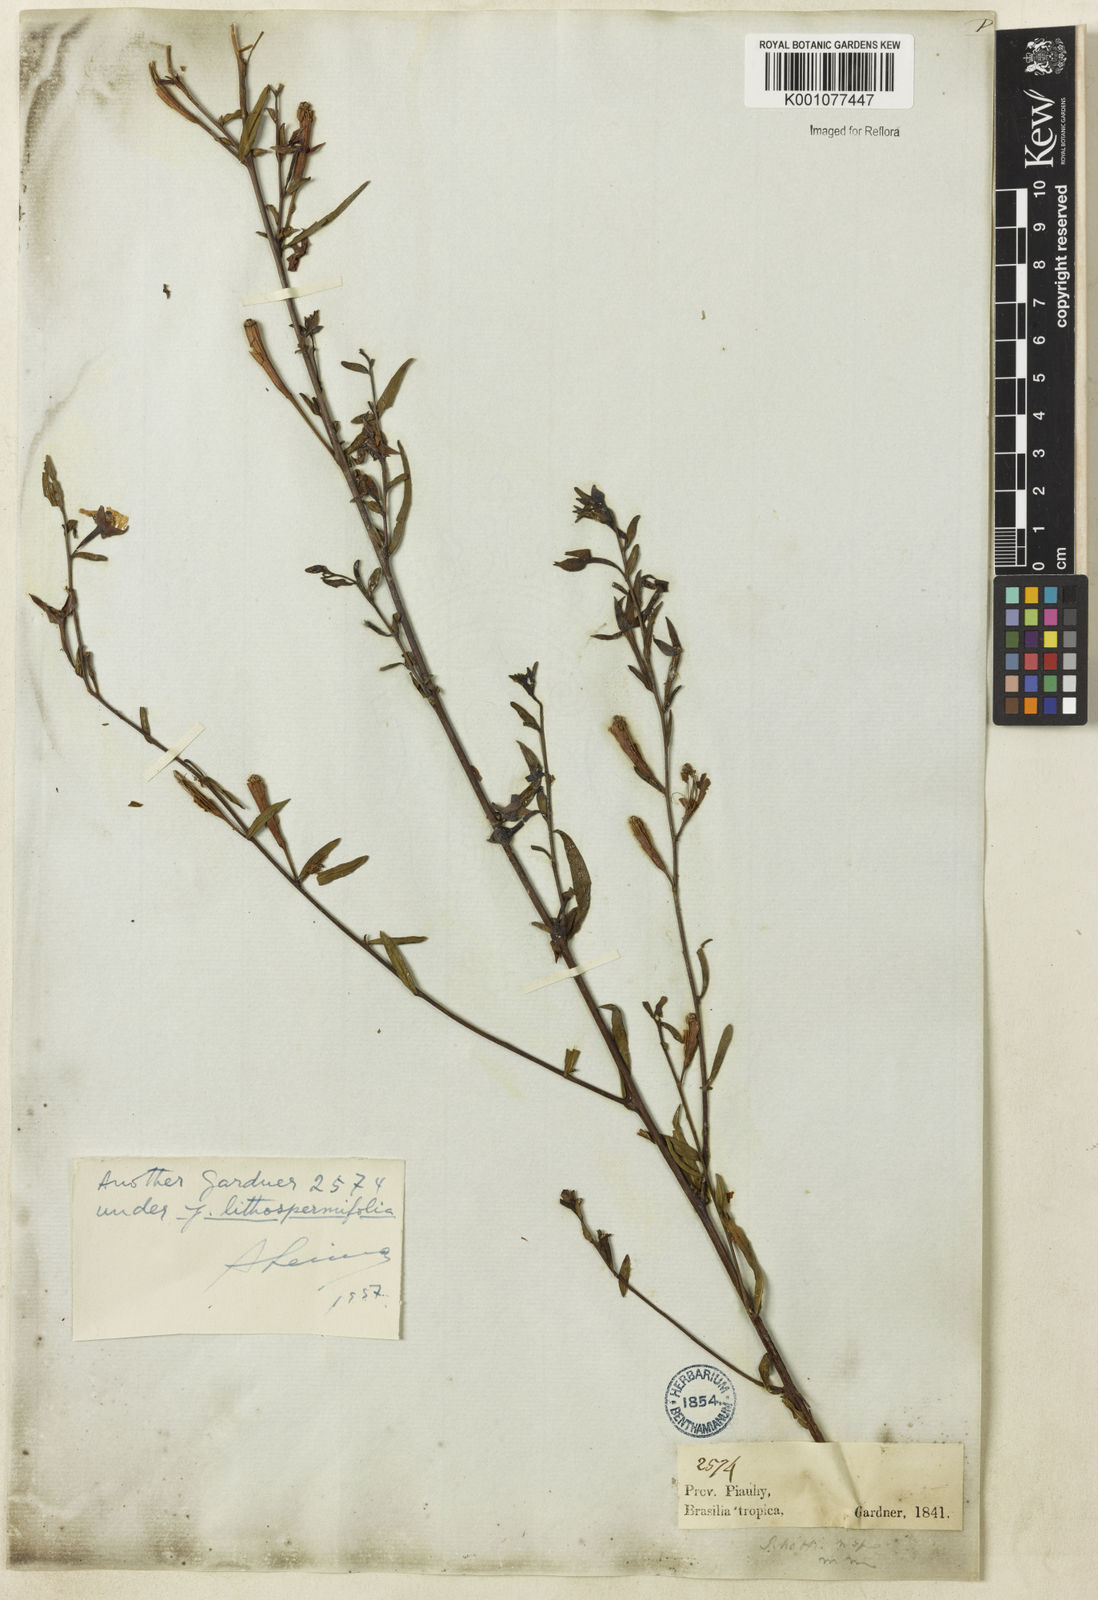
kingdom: Plantae
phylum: Tracheophyta
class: Magnoliopsida
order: Myrtales
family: Onagraceae
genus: Ludwigia
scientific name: Ludwigia leptocarpa
